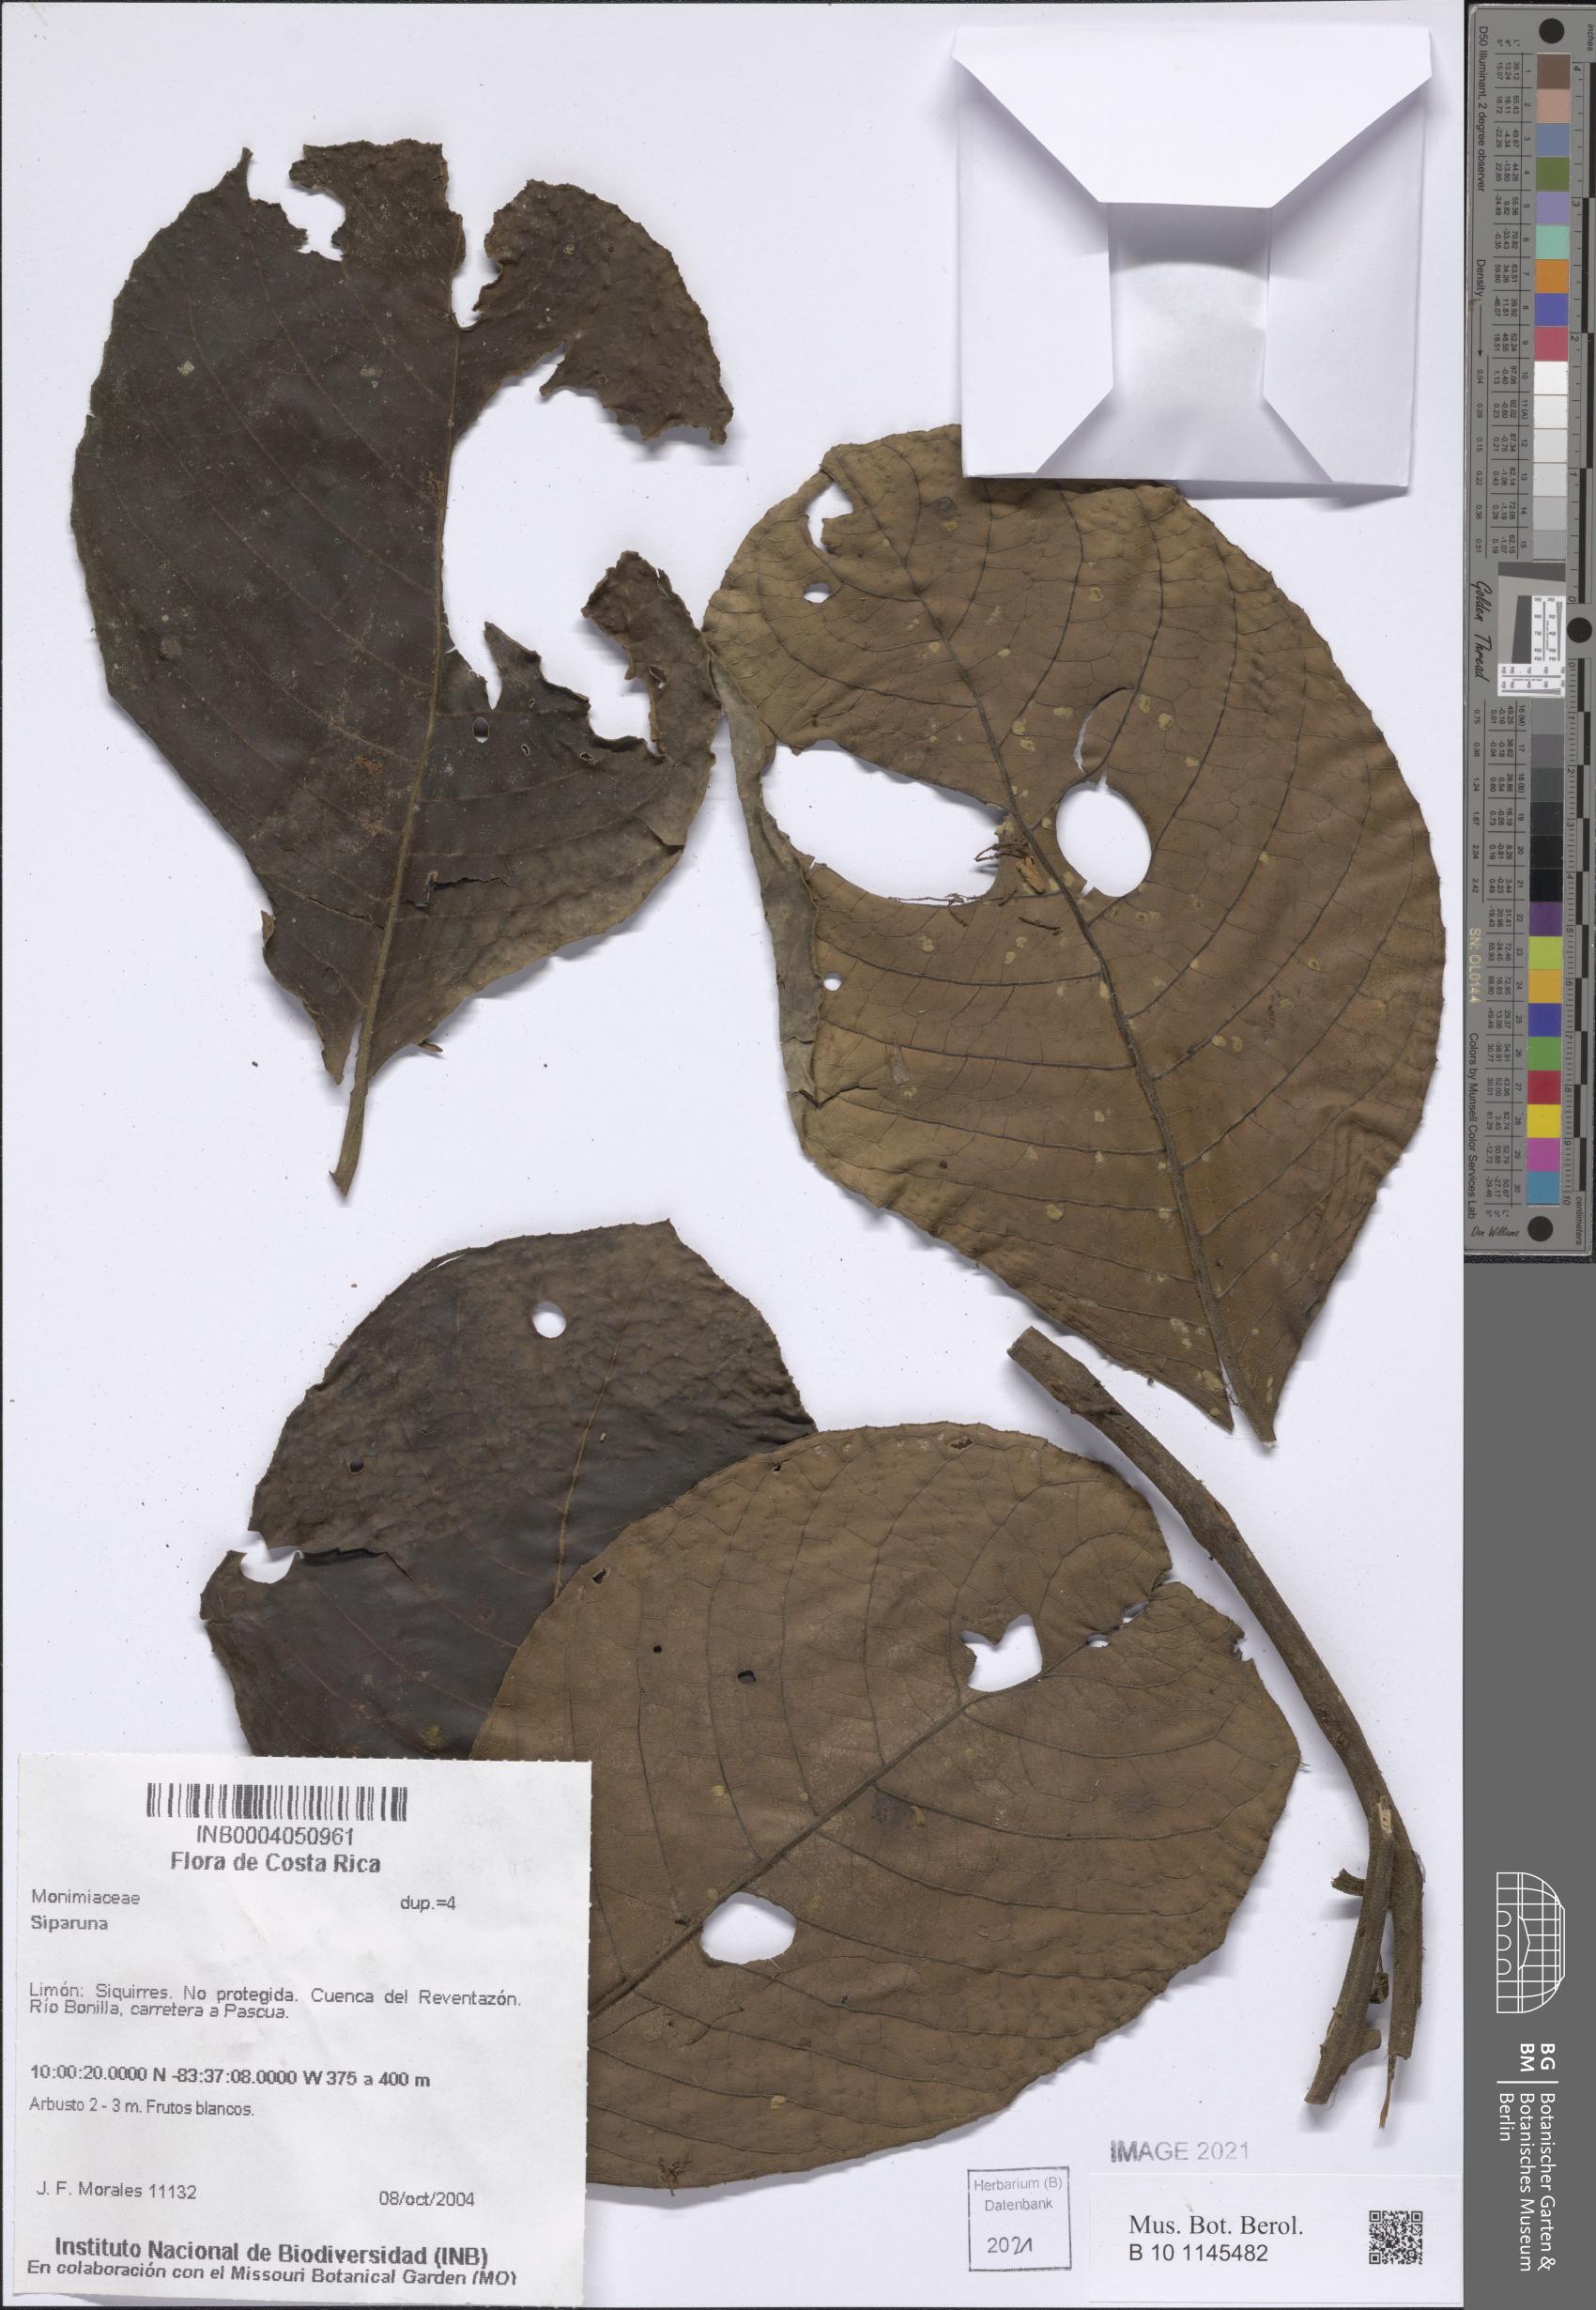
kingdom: Plantae
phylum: Tracheophyta
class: Magnoliopsida
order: Laurales
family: Siparunaceae
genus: Siparuna
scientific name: Siparuna
